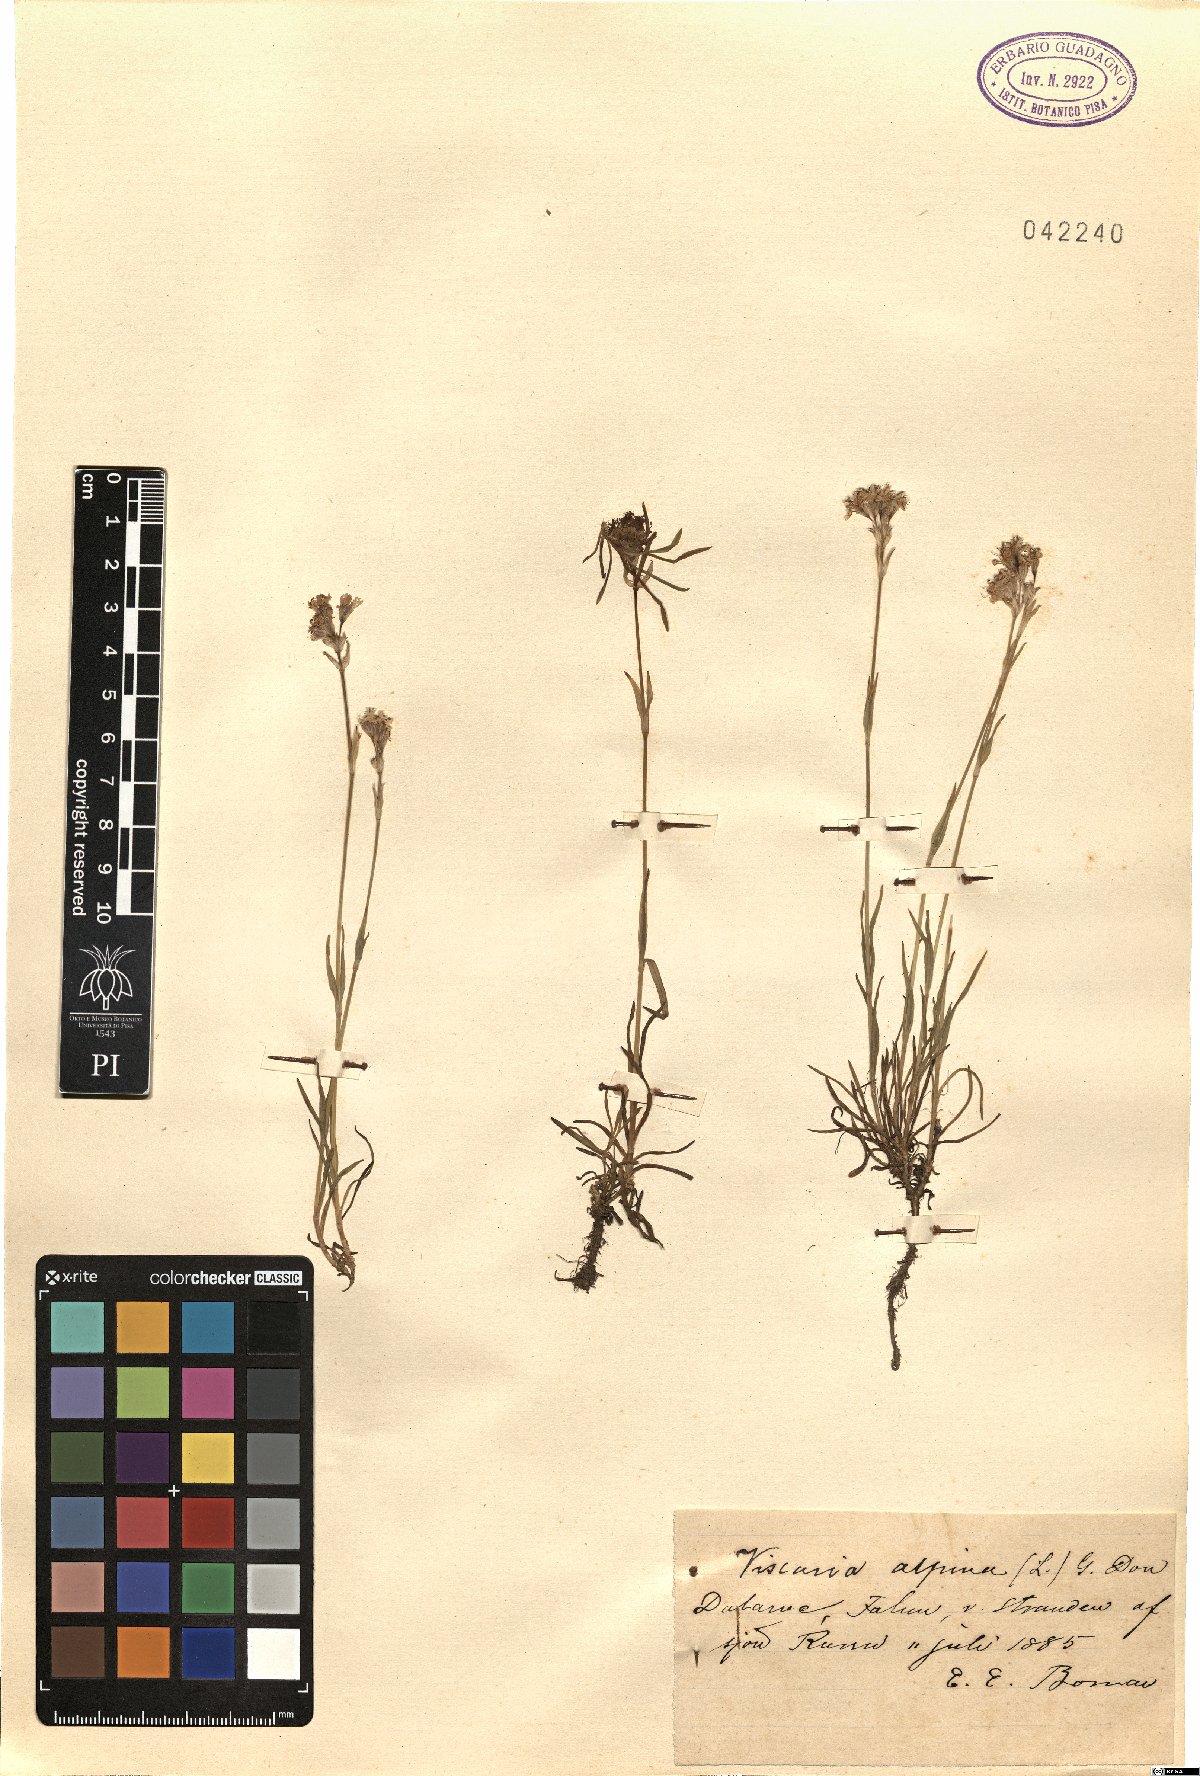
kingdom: Plantae
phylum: Tracheophyta
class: Magnoliopsida
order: Caryophyllales
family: Caryophyllaceae
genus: Viscaria
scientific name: Viscaria alpina
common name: Alpine campion
